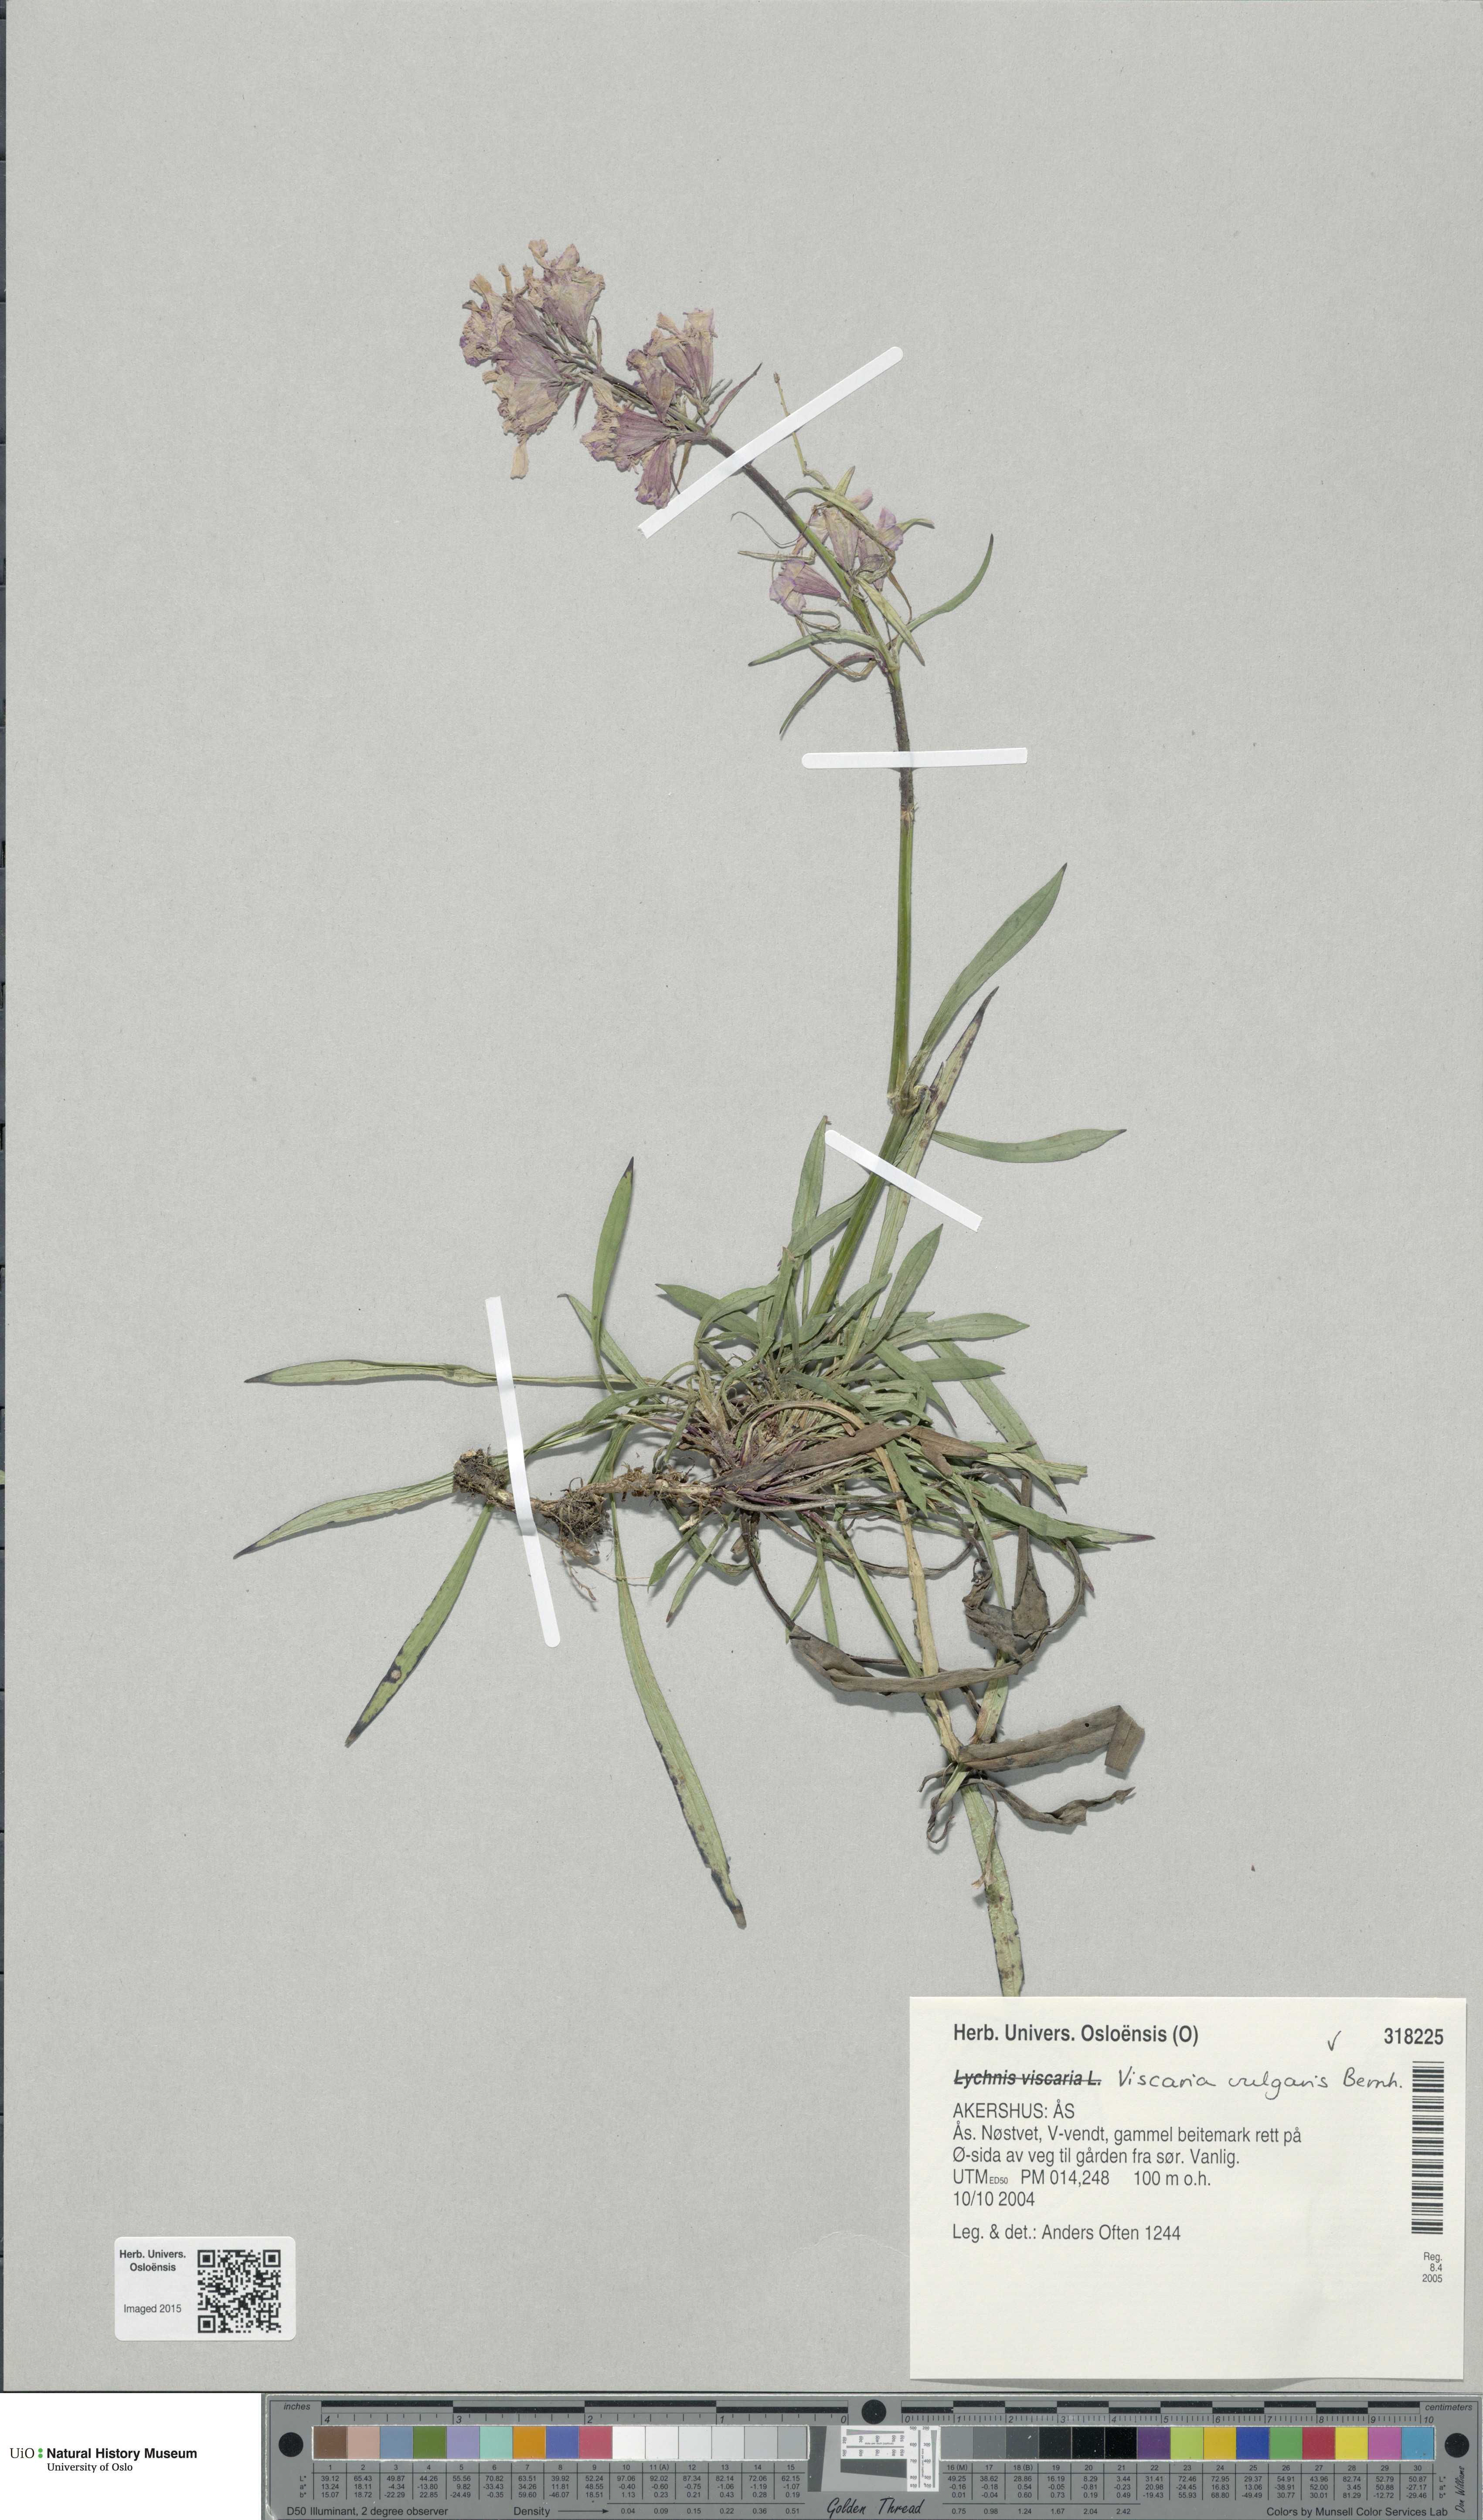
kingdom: Plantae
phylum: Tracheophyta
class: Magnoliopsida
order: Caryophyllales
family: Caryophyllaceae
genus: Viscaria
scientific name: Viscaria vulgaris
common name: Clammy campion
